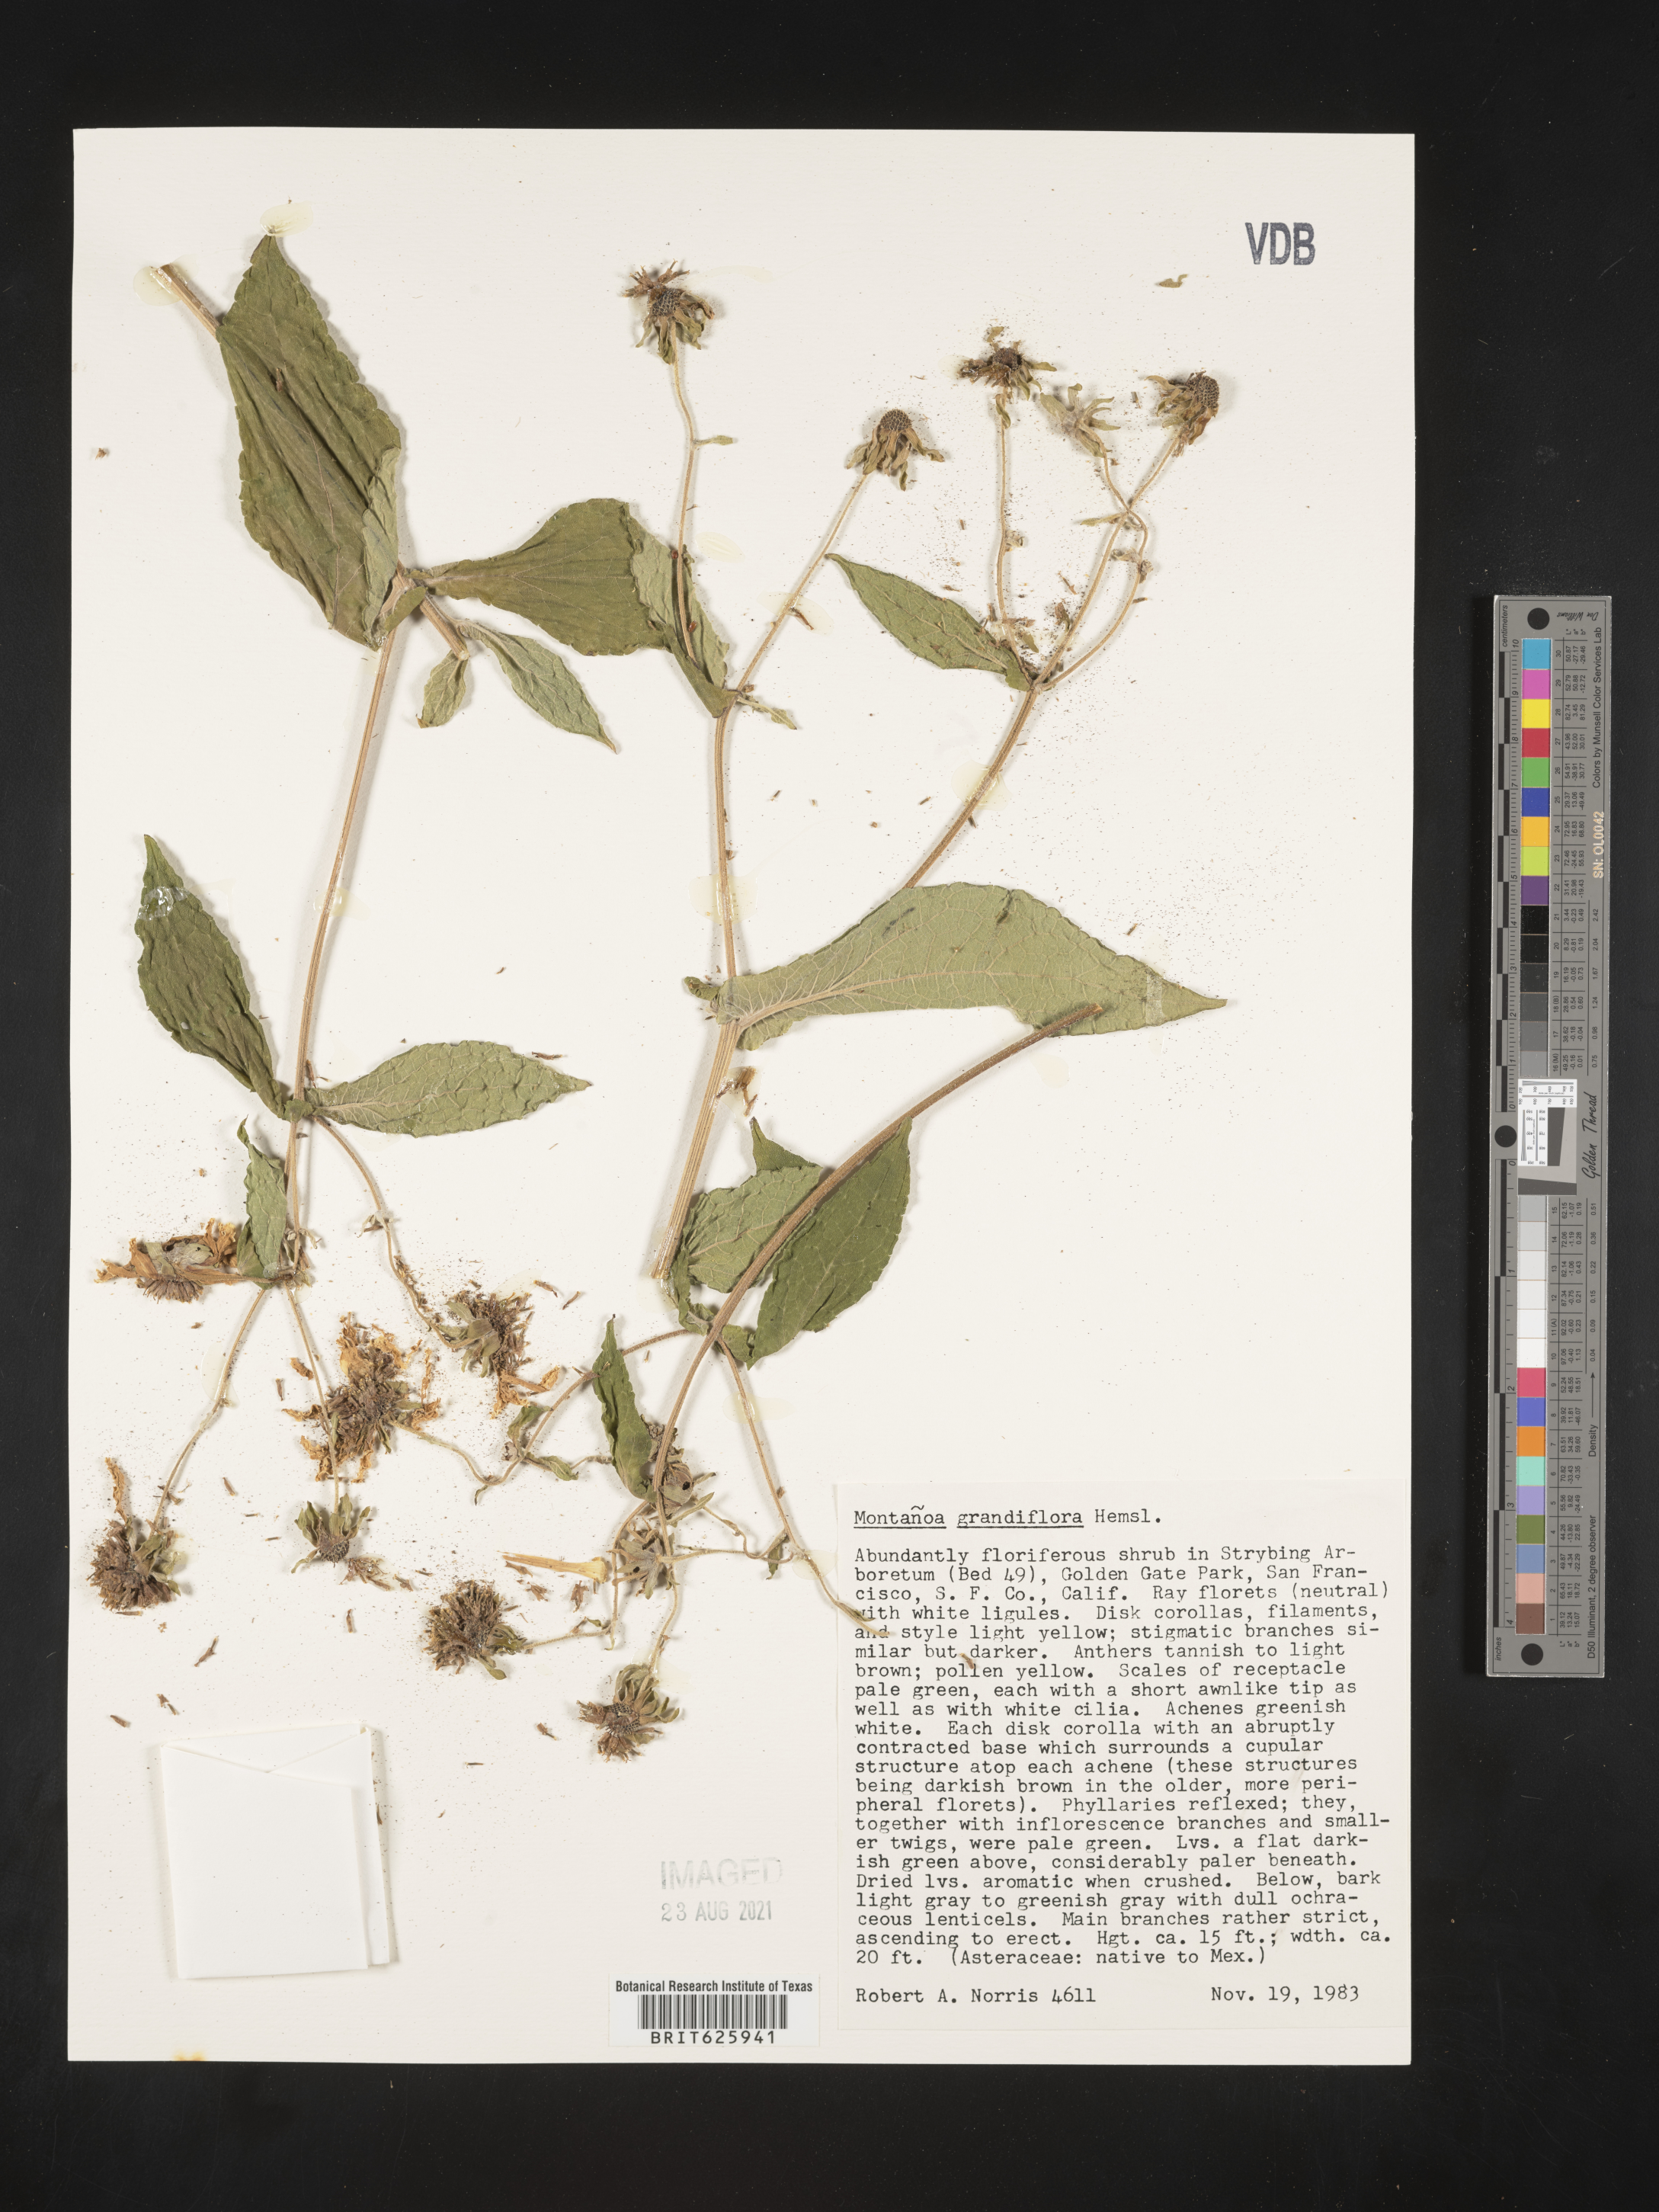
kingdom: Plantae
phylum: Tracheophyta
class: Magnoliopsida
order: Asterales
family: Asteraceae
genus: Montanoa
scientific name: Montanoa grandiflora
